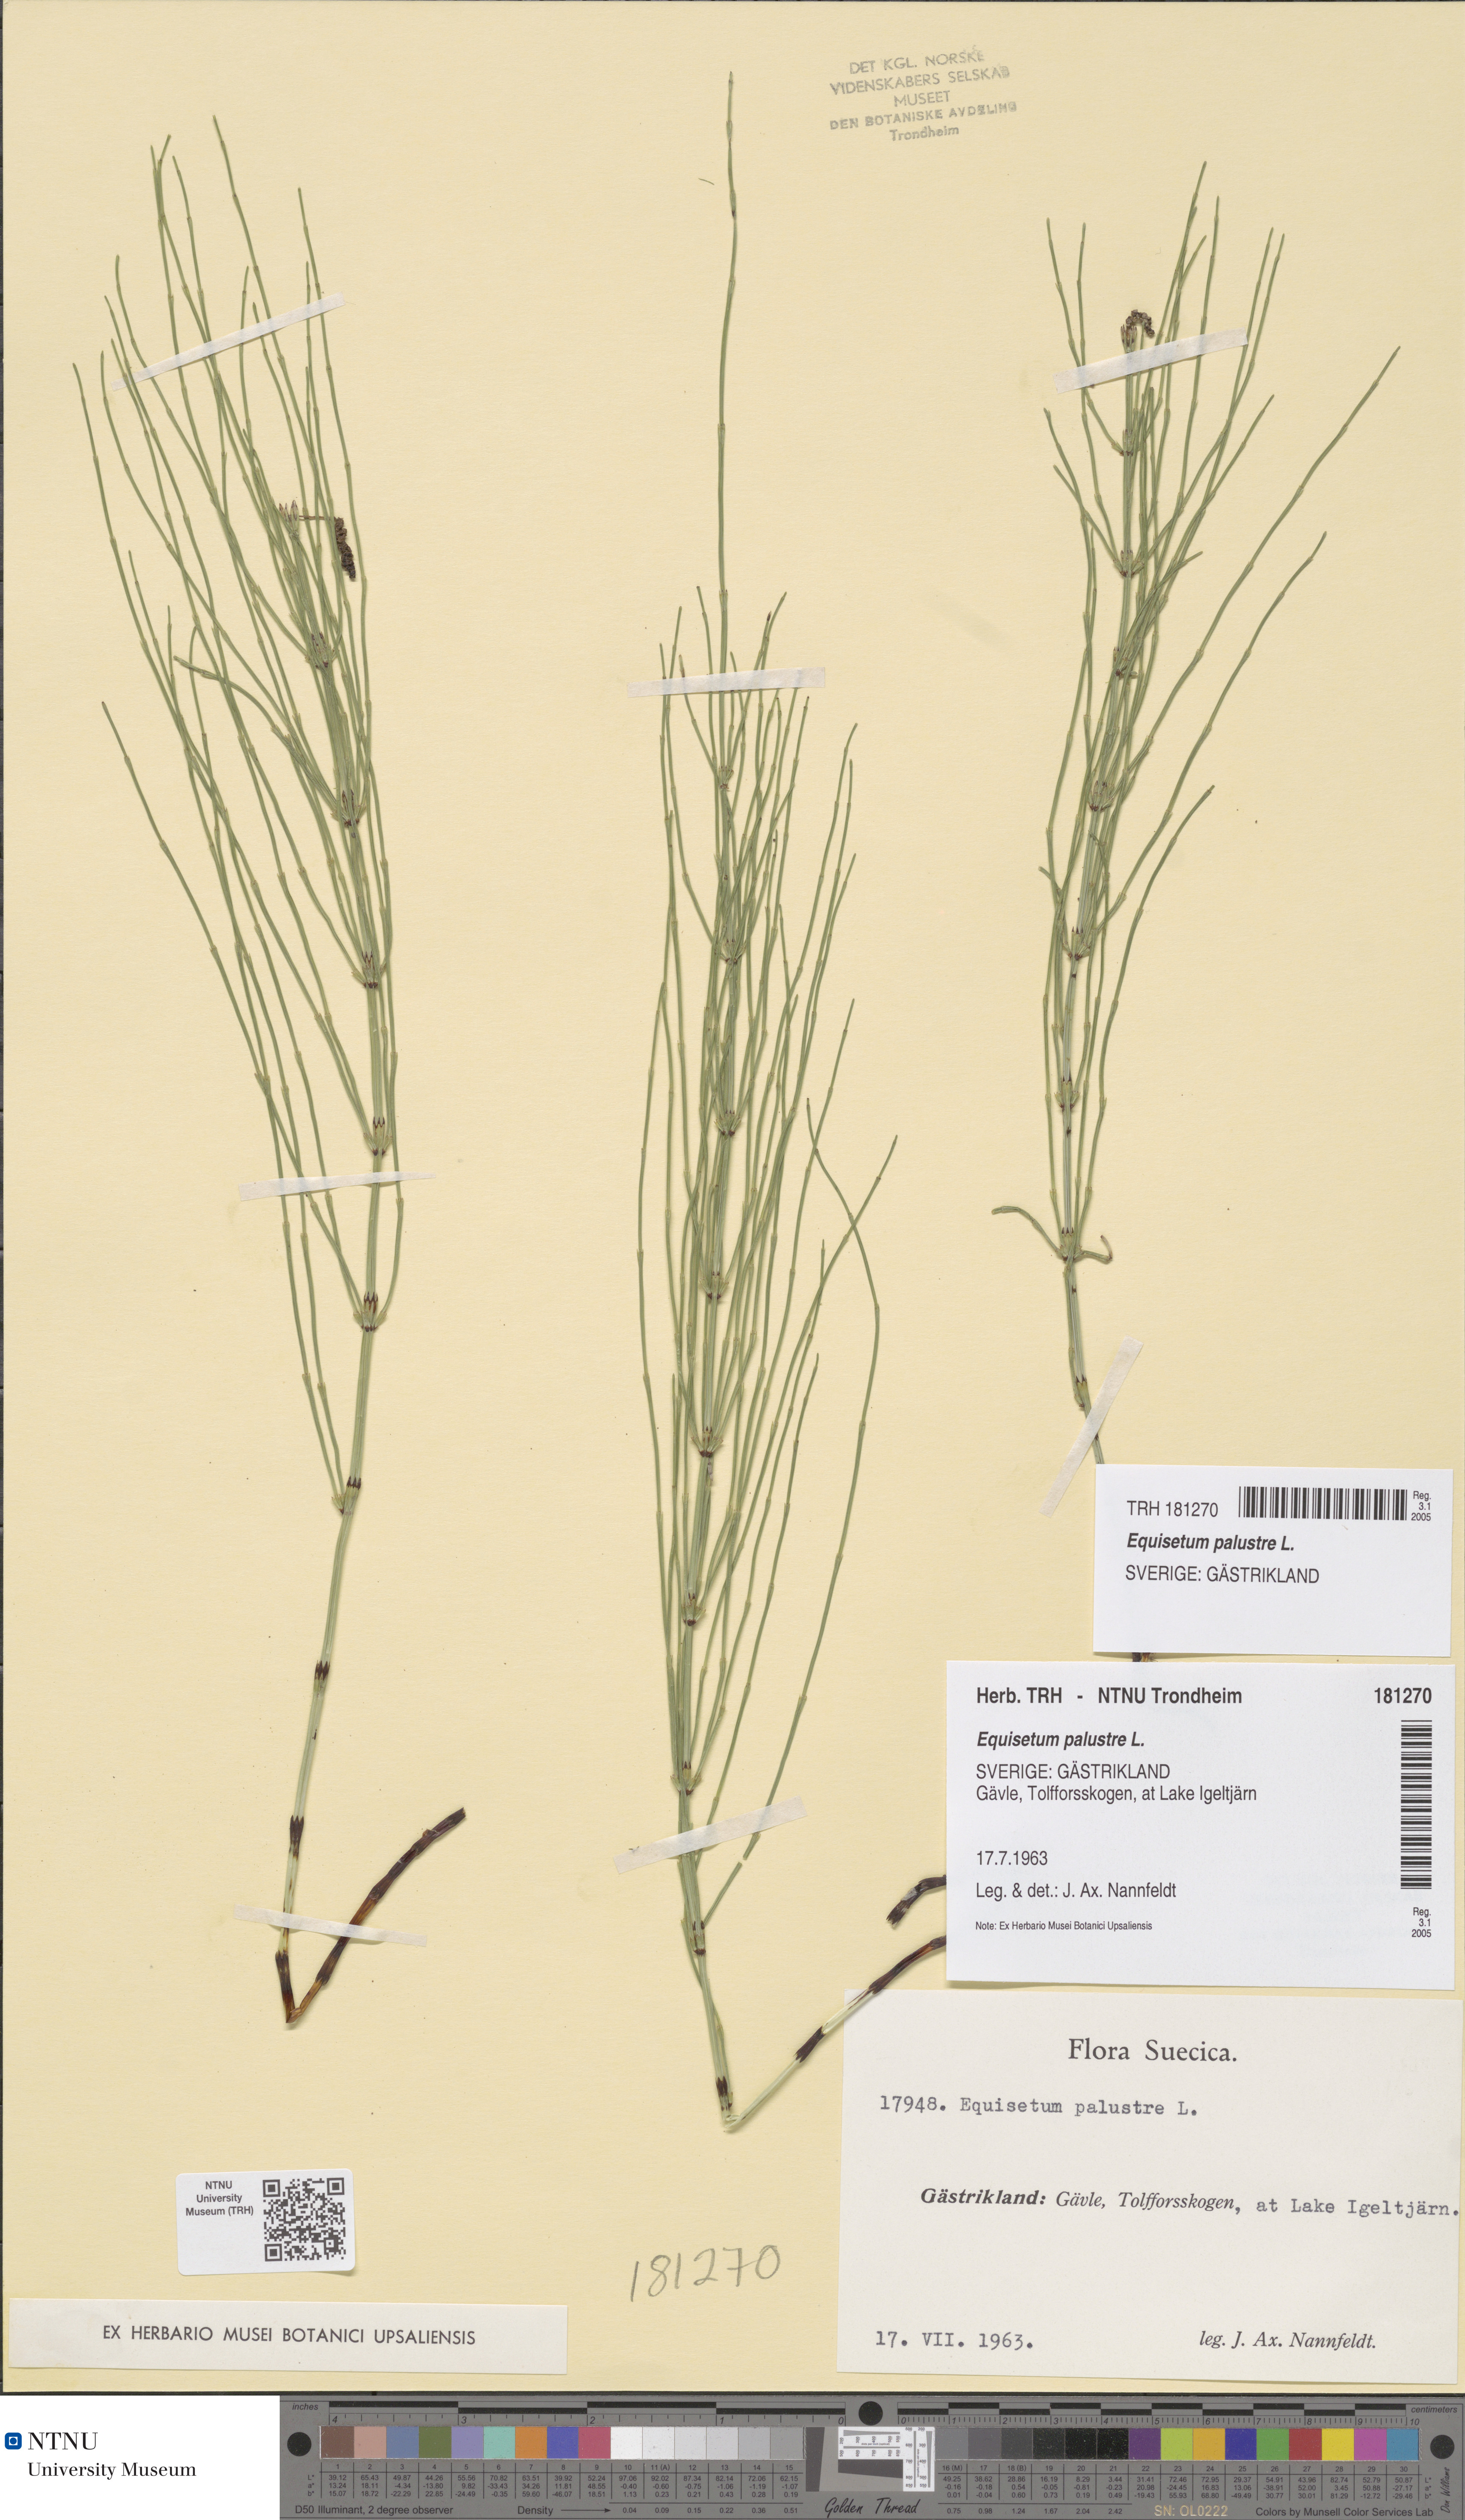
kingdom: Plantae
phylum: Tracheophyta
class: Polypodiopsida
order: Equisetales
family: Equisetaceae
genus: Equisetum
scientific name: Equisetum palustre
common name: Marsh horsetail
